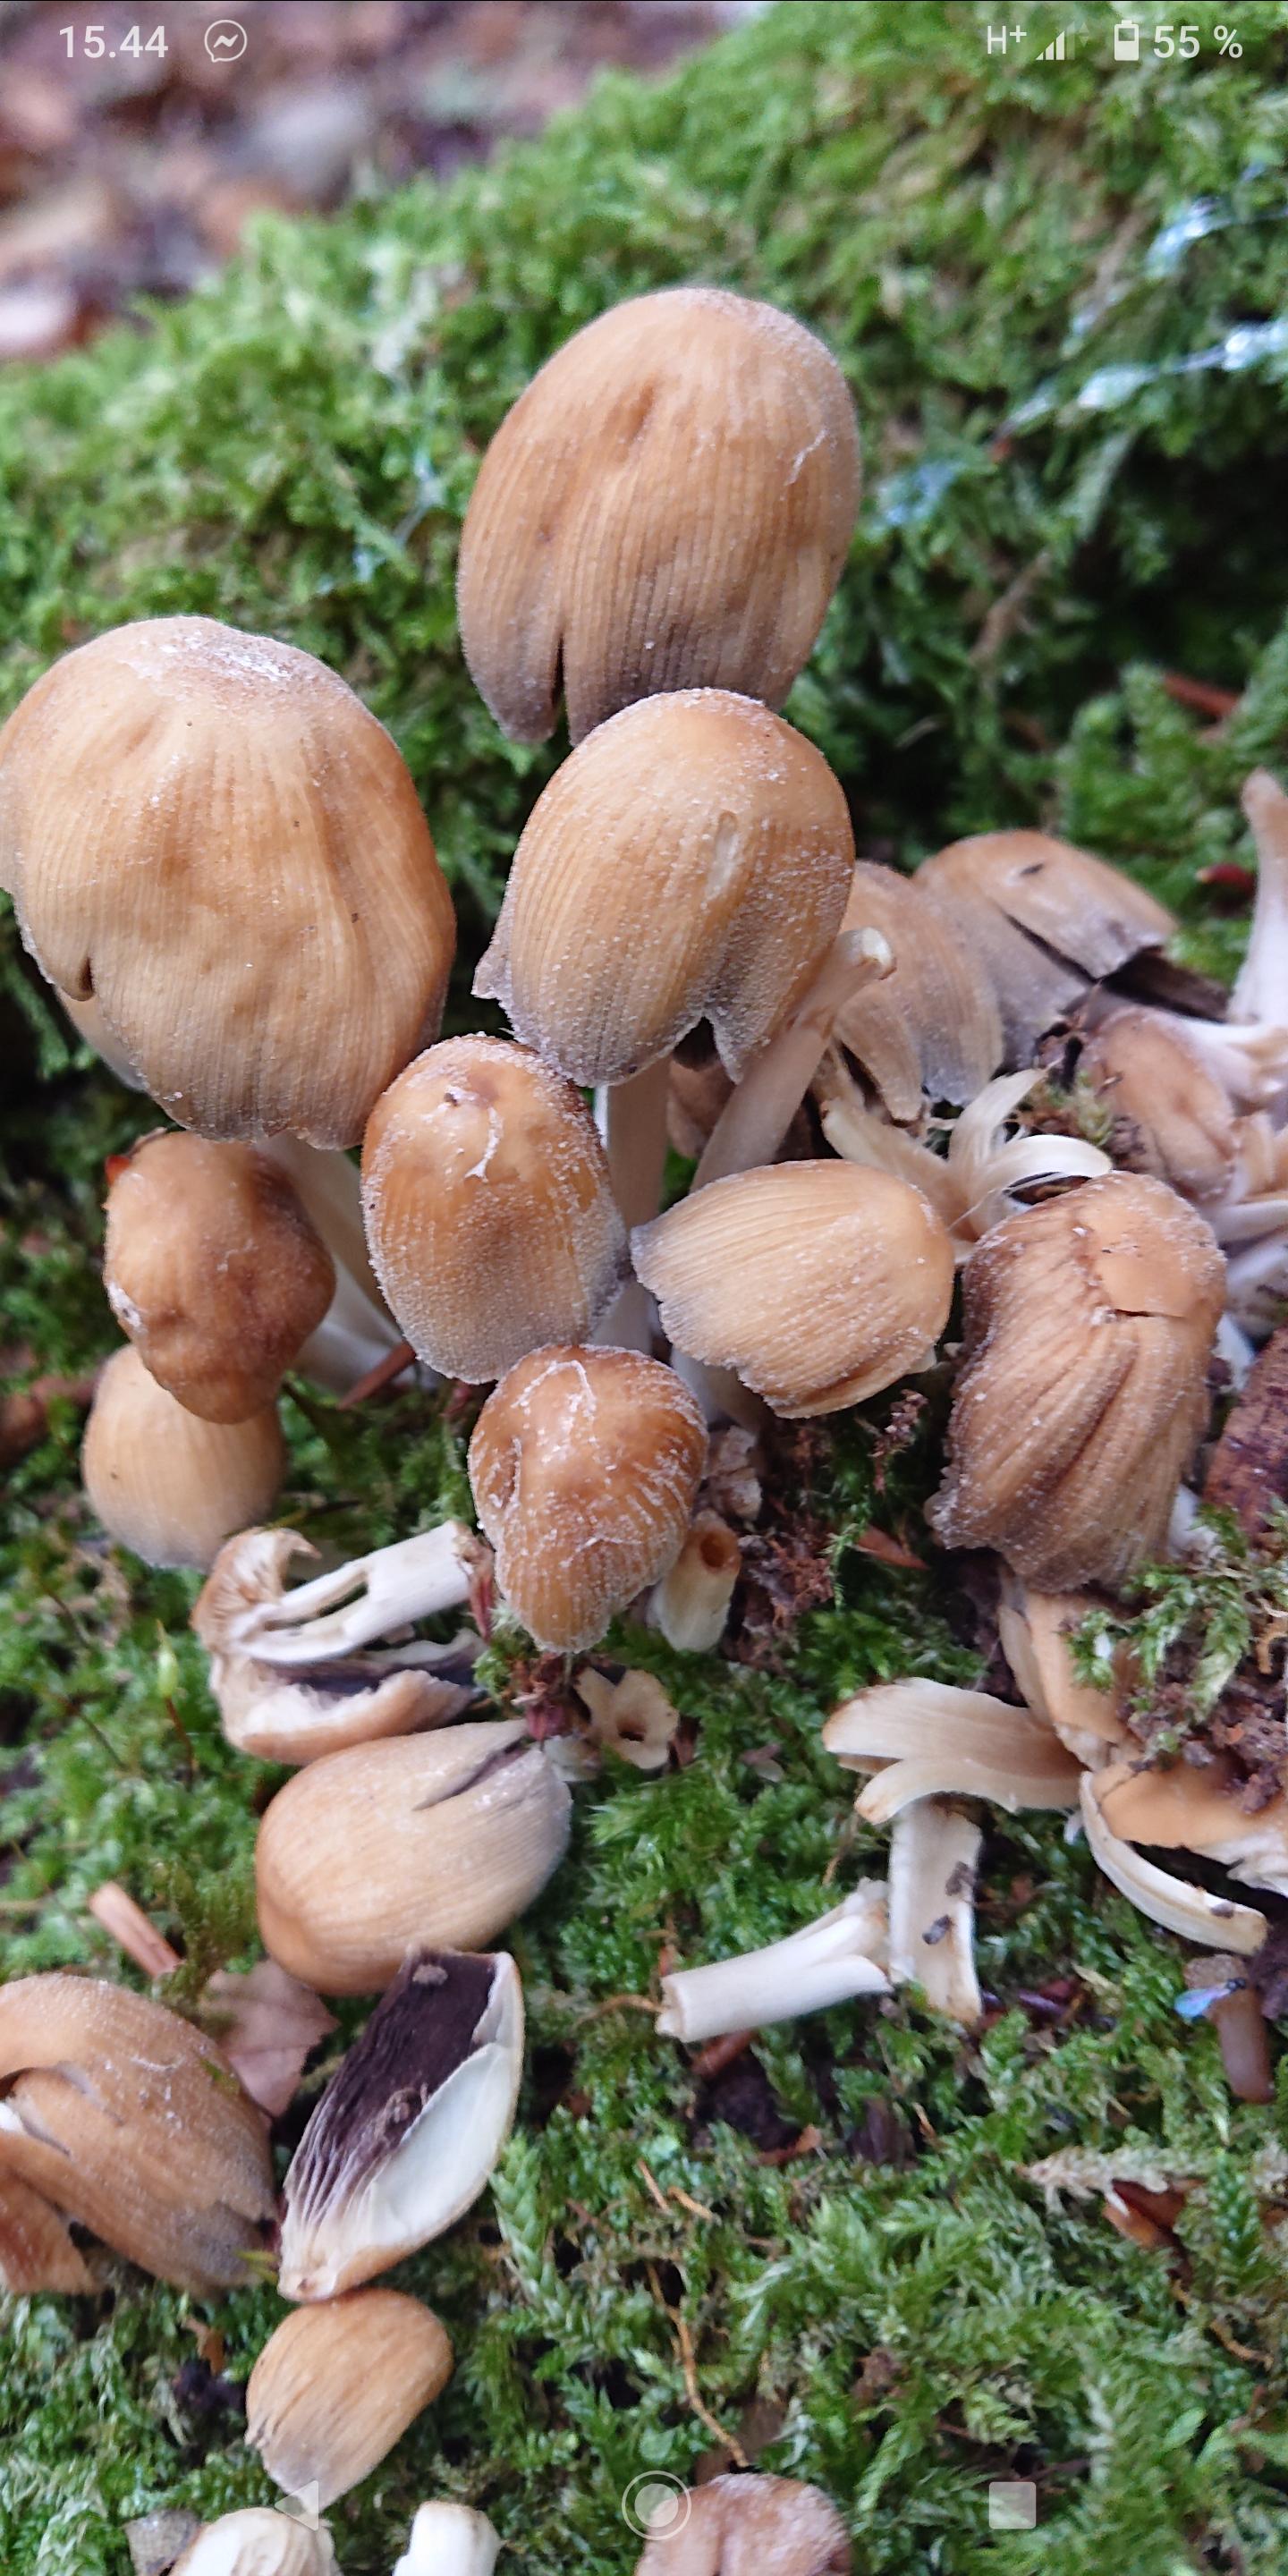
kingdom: Fungi
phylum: Basidiomycota
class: Agaricomycetes
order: Agaricales
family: Psathyrellaceae
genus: Coprinellus
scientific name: Coprinellus micaceus
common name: glimmer-blækhat
